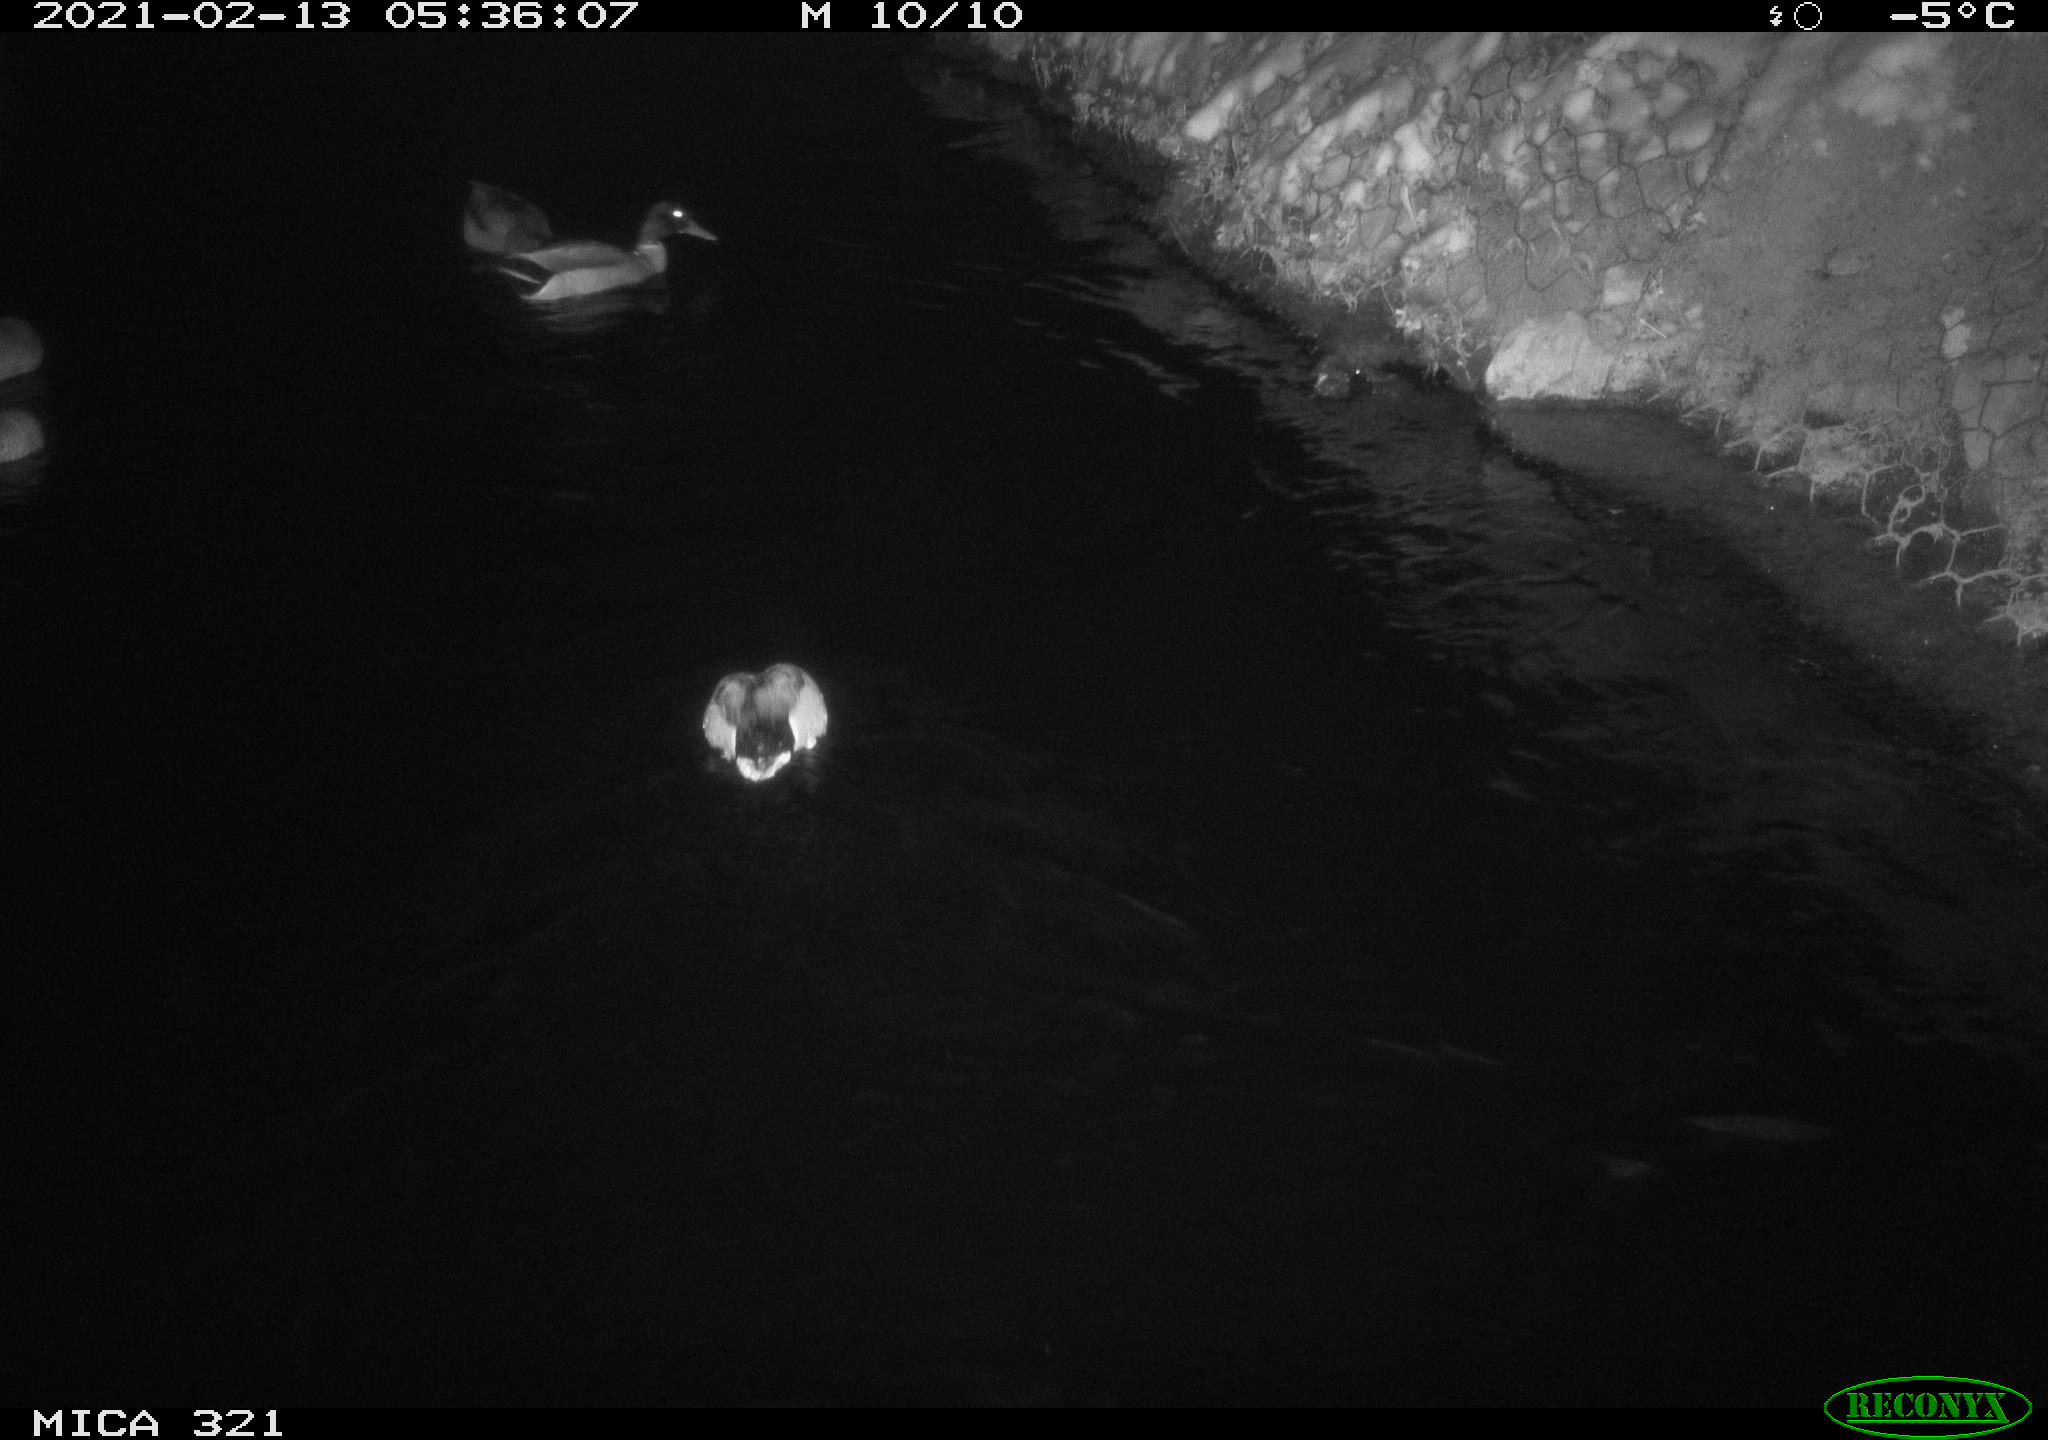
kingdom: Animalia
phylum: Chordata
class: Aves
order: Anseriformes
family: Anatidae
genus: Anas
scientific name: Anas platyrhynchos
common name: Mallard
